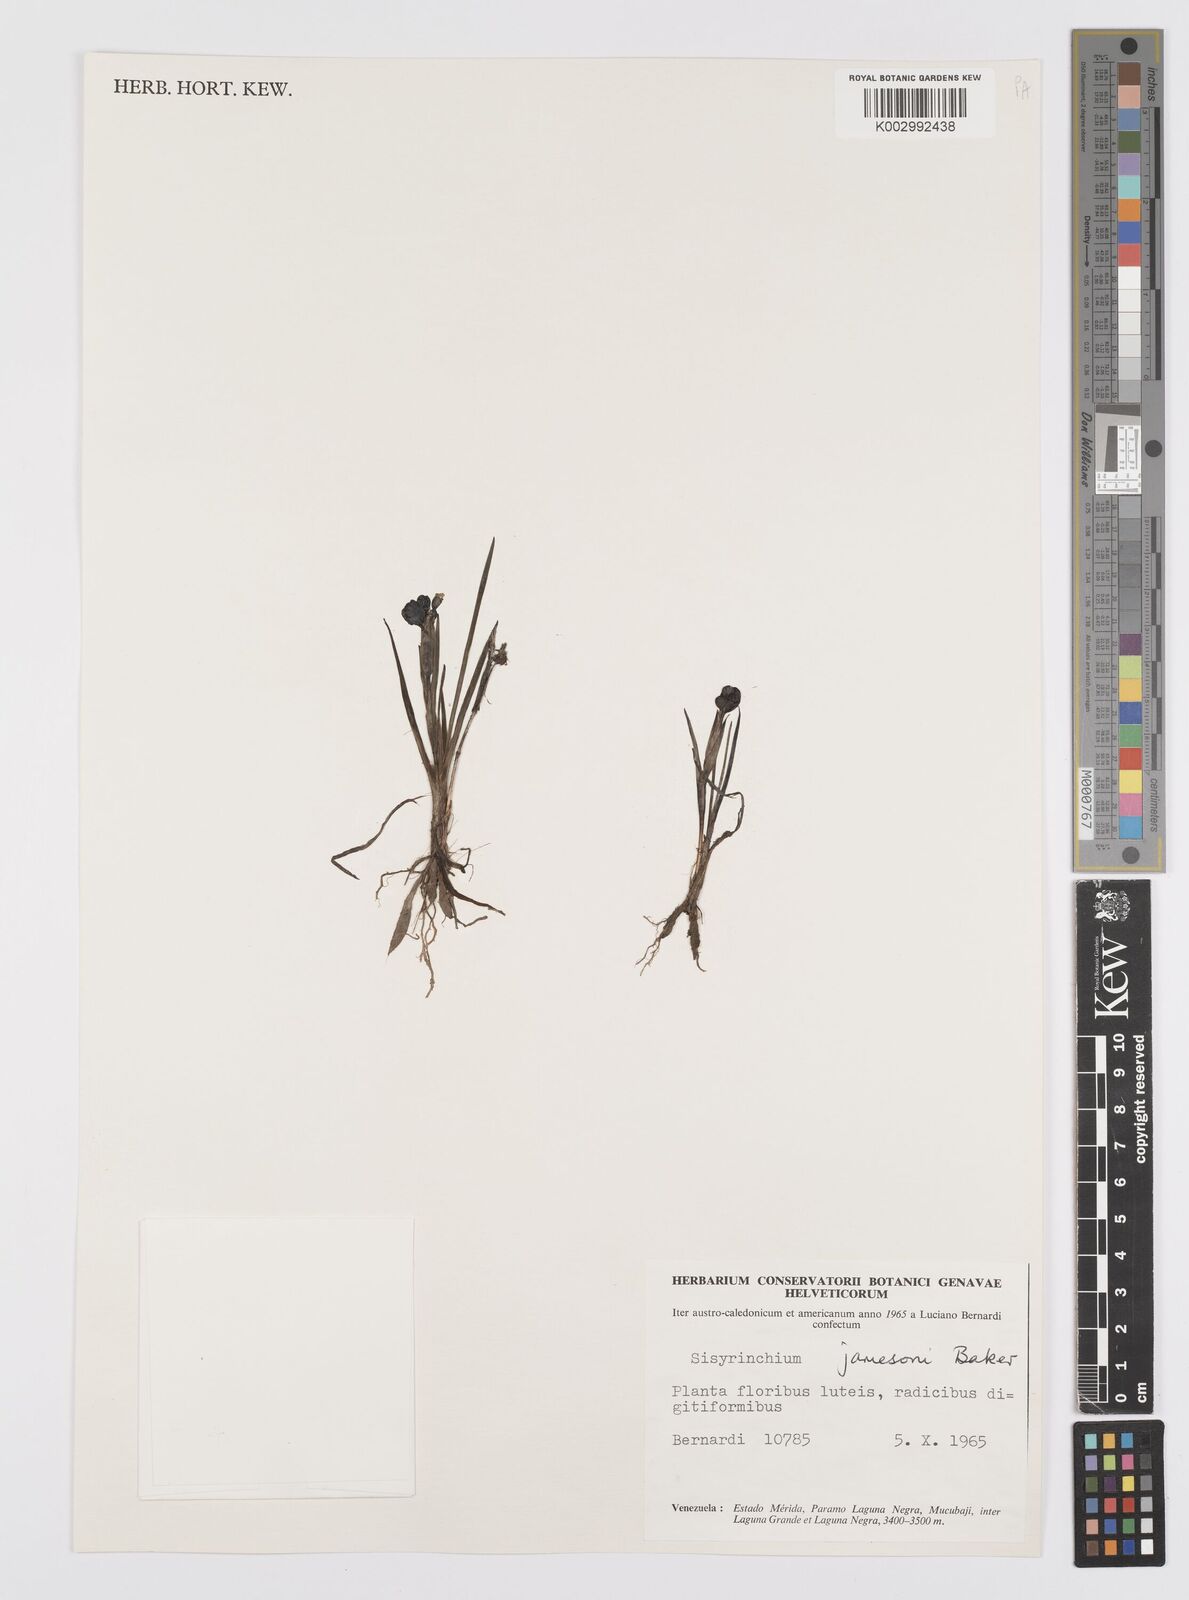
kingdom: Plantae
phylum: Tracheophyta
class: Liliopsida
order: Asparagales
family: Iridaceae
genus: Sisyrinchium
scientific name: Sisyrinchium jamesonii
